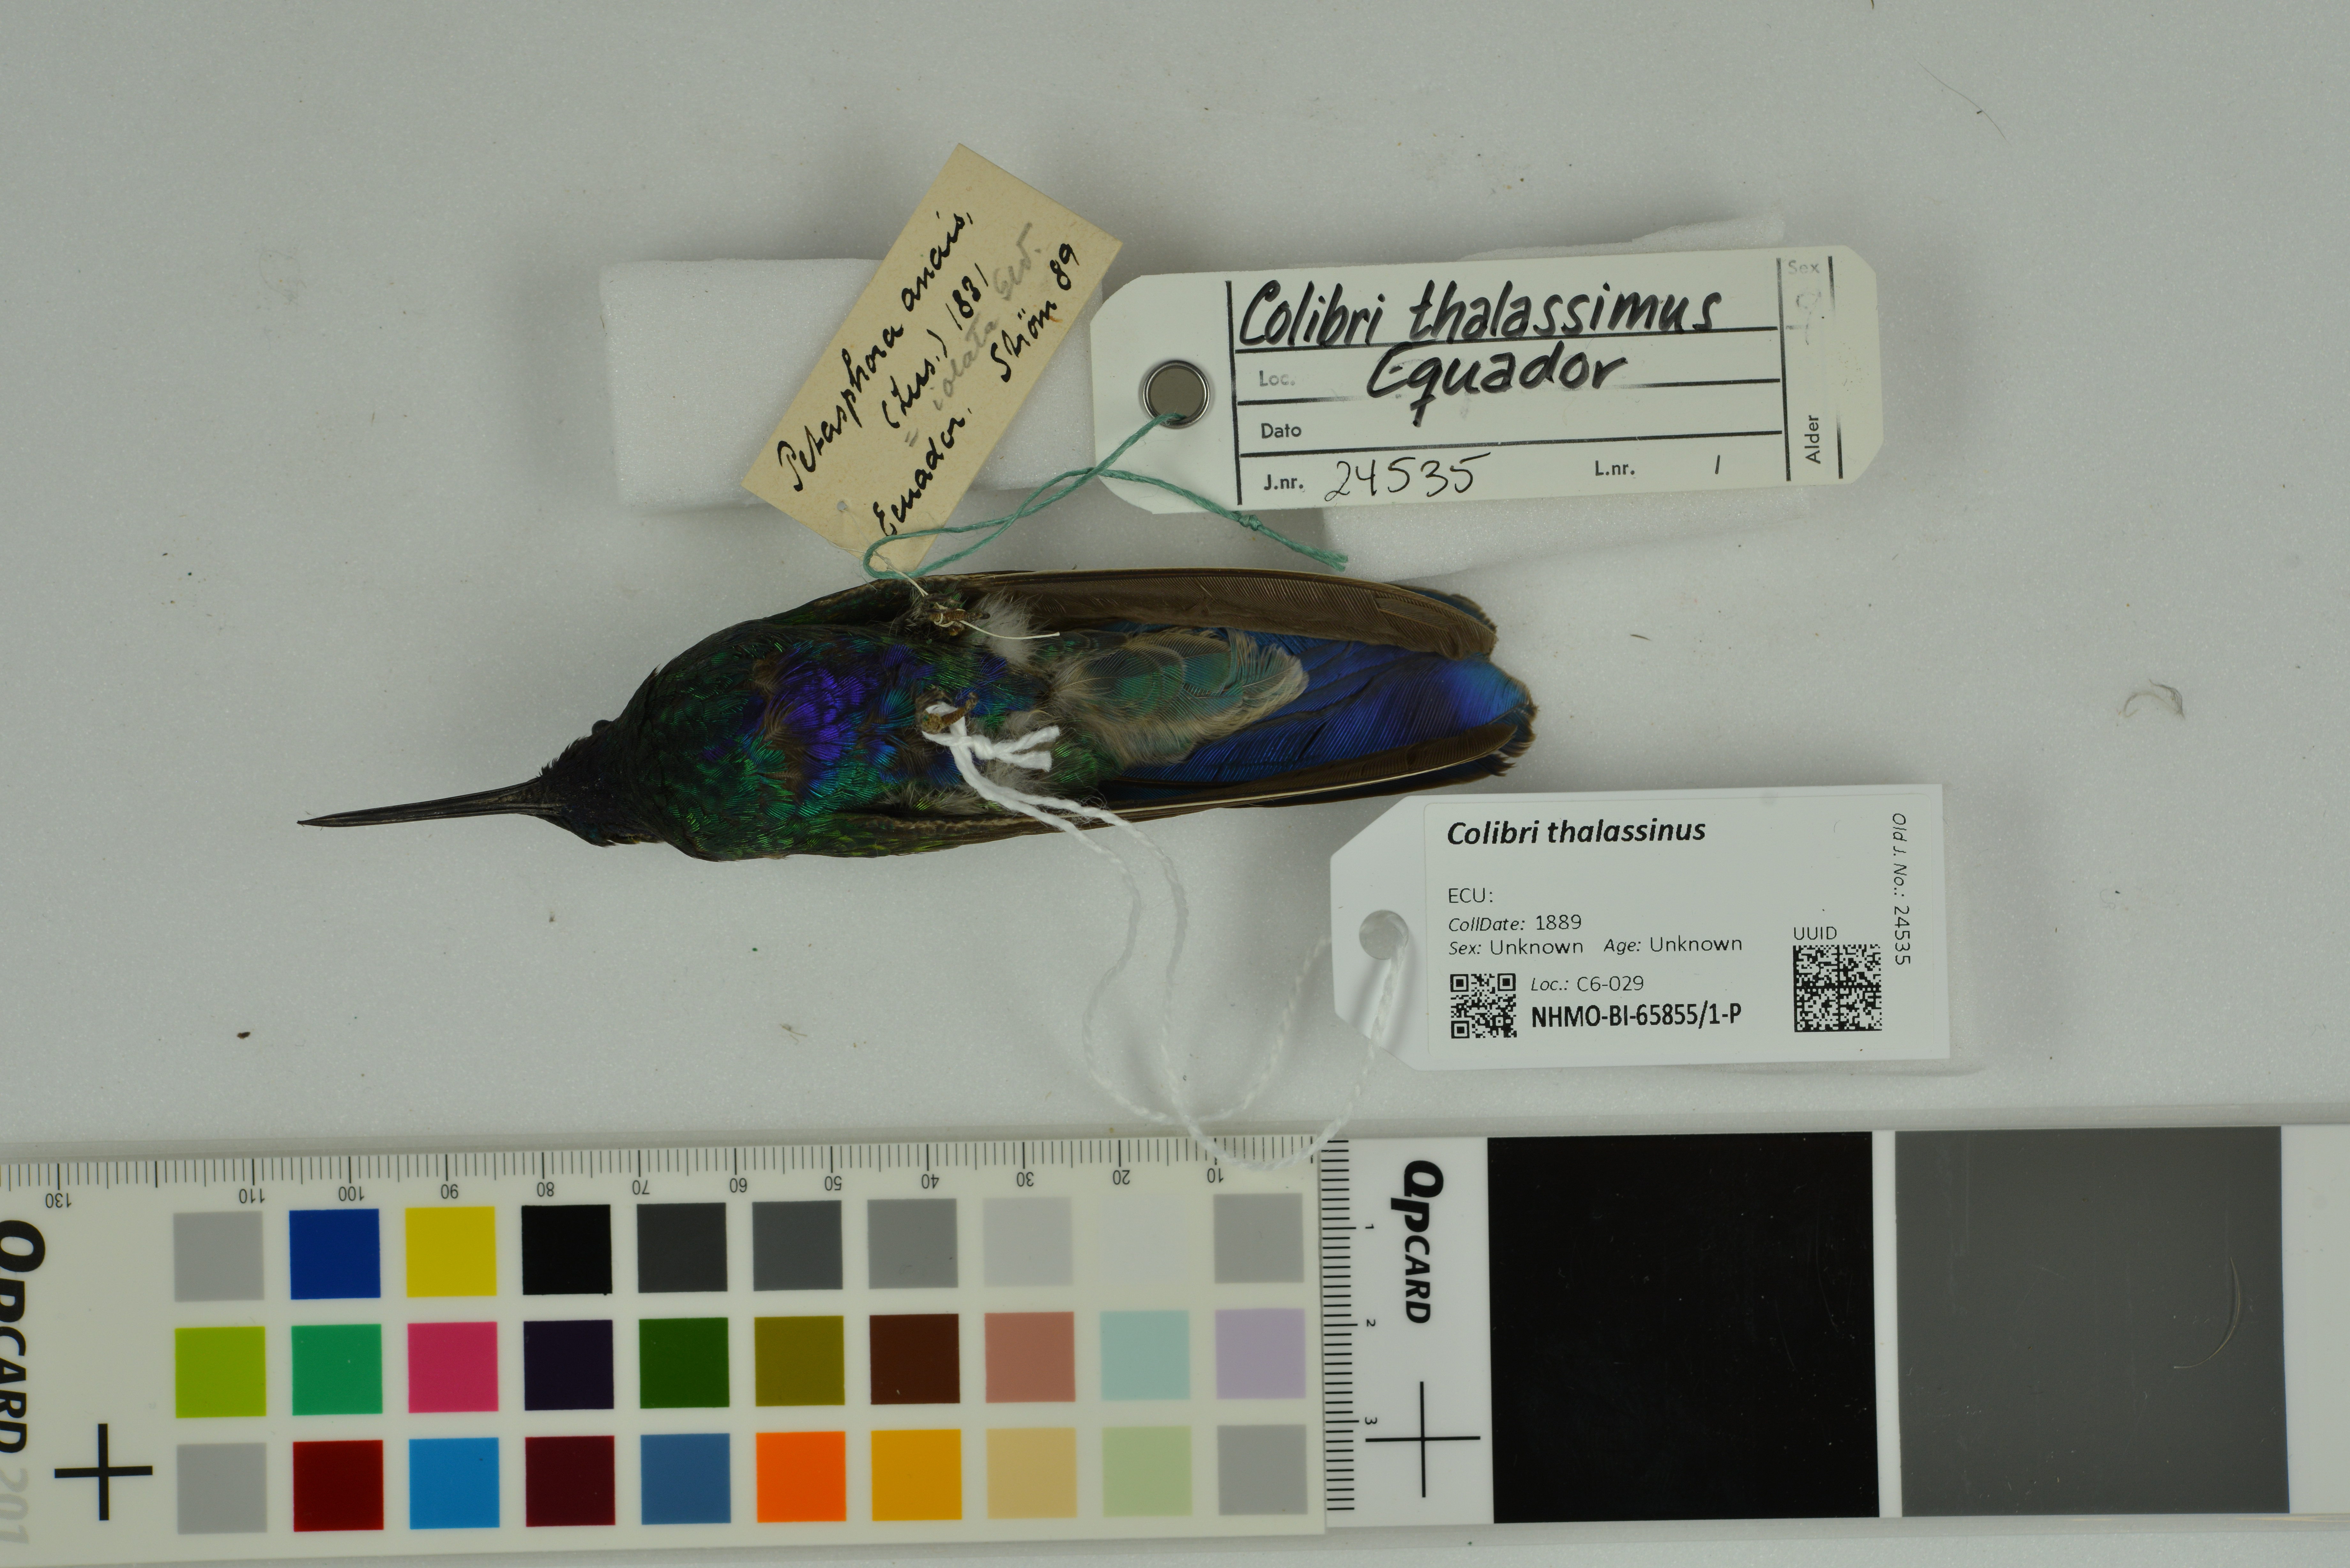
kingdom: Animalia
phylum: Chordata
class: Aves
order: Apodiformes
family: Trochilidae
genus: Colibri
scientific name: Colibri thalassinus
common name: Green violetear
